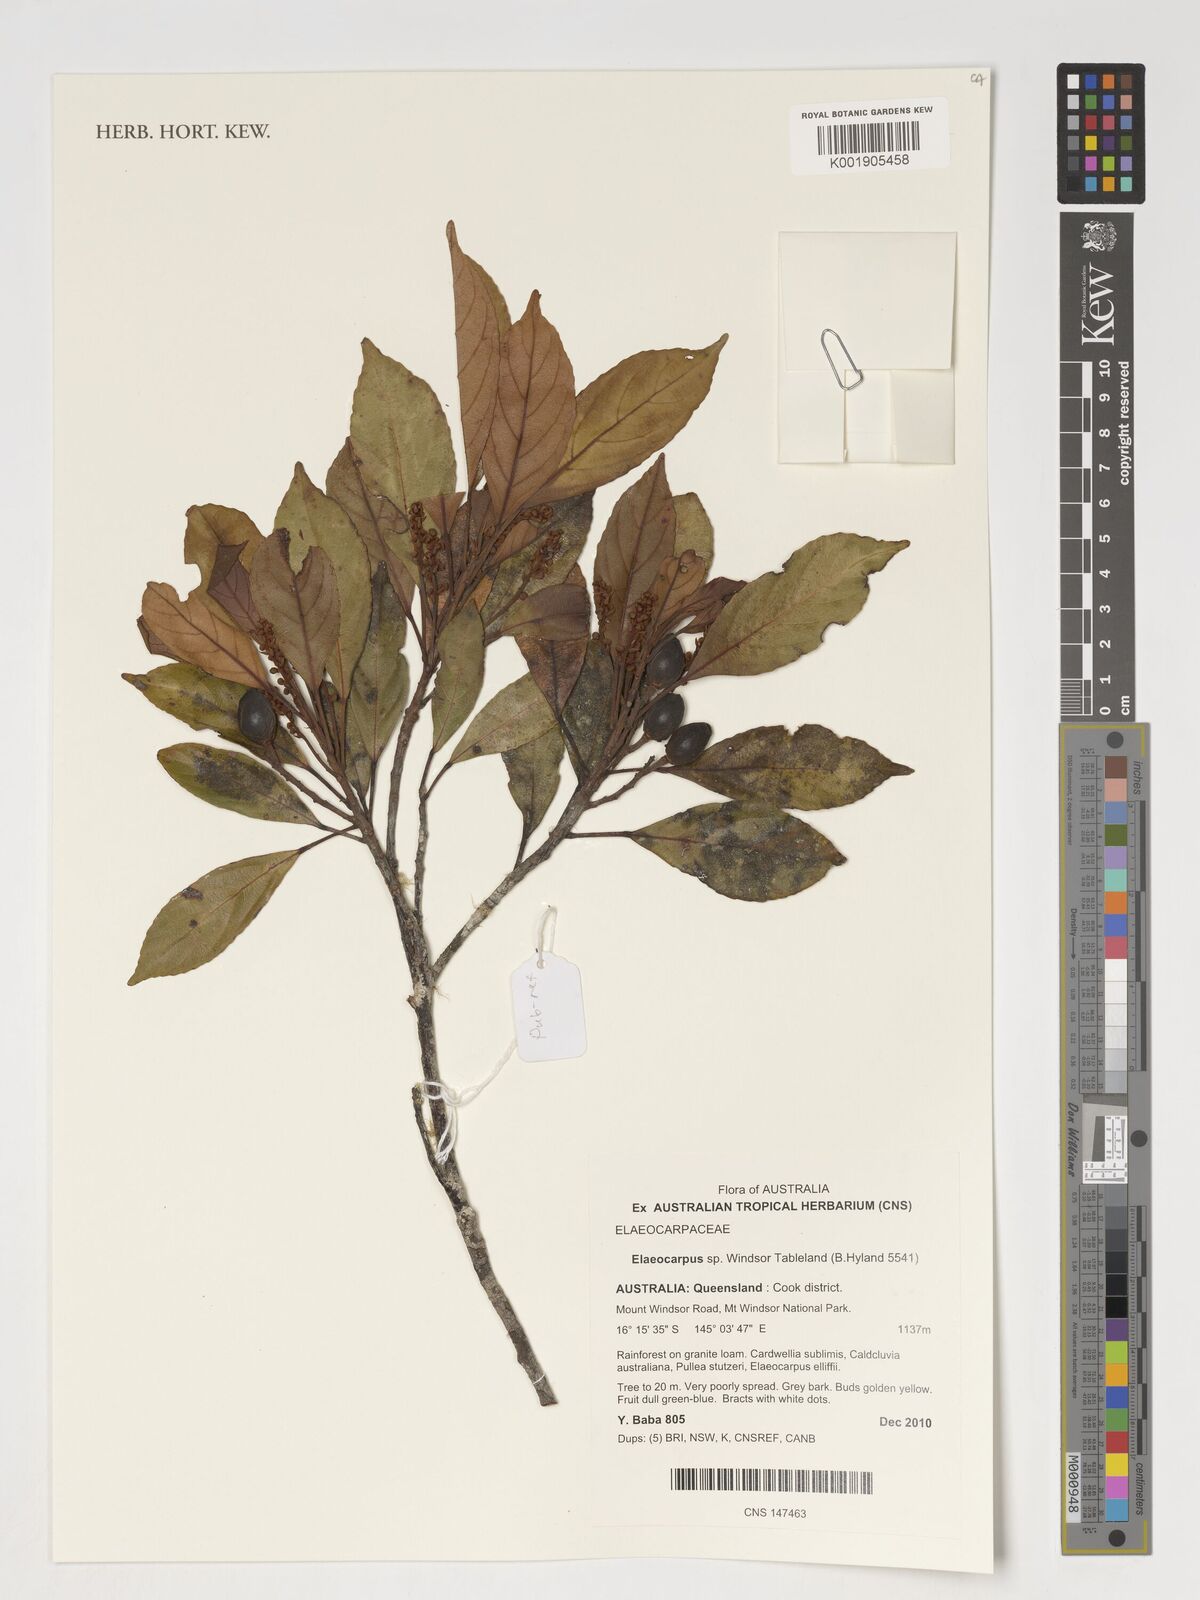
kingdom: Plantae
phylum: Tracheophyta
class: Magnoliopsida
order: Oxalidales
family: Elaeocarpaceae
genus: Elaeocarpus
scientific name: Elaeocarpus
